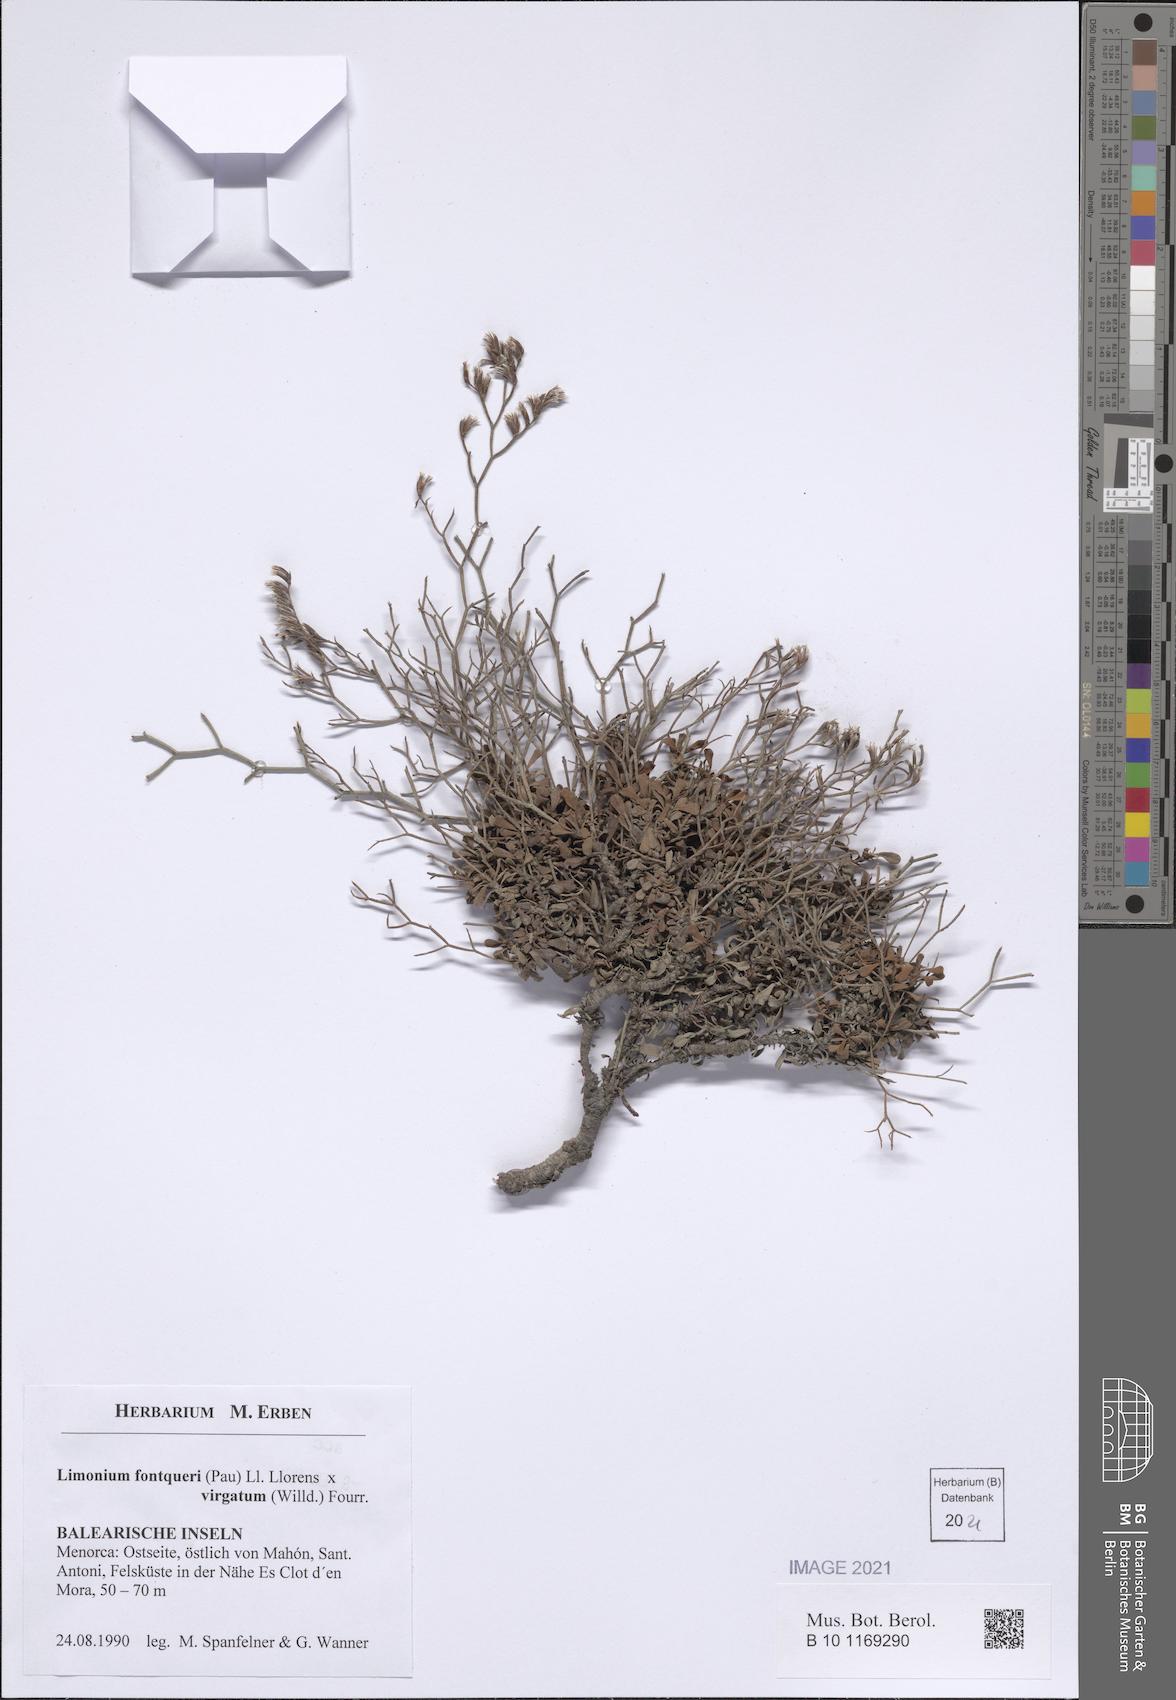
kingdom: Plantae
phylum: Tracheophyta
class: Magnoliopsida
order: Caryophyllales
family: Plumbaginaceae
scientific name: Plumbaginaceae
